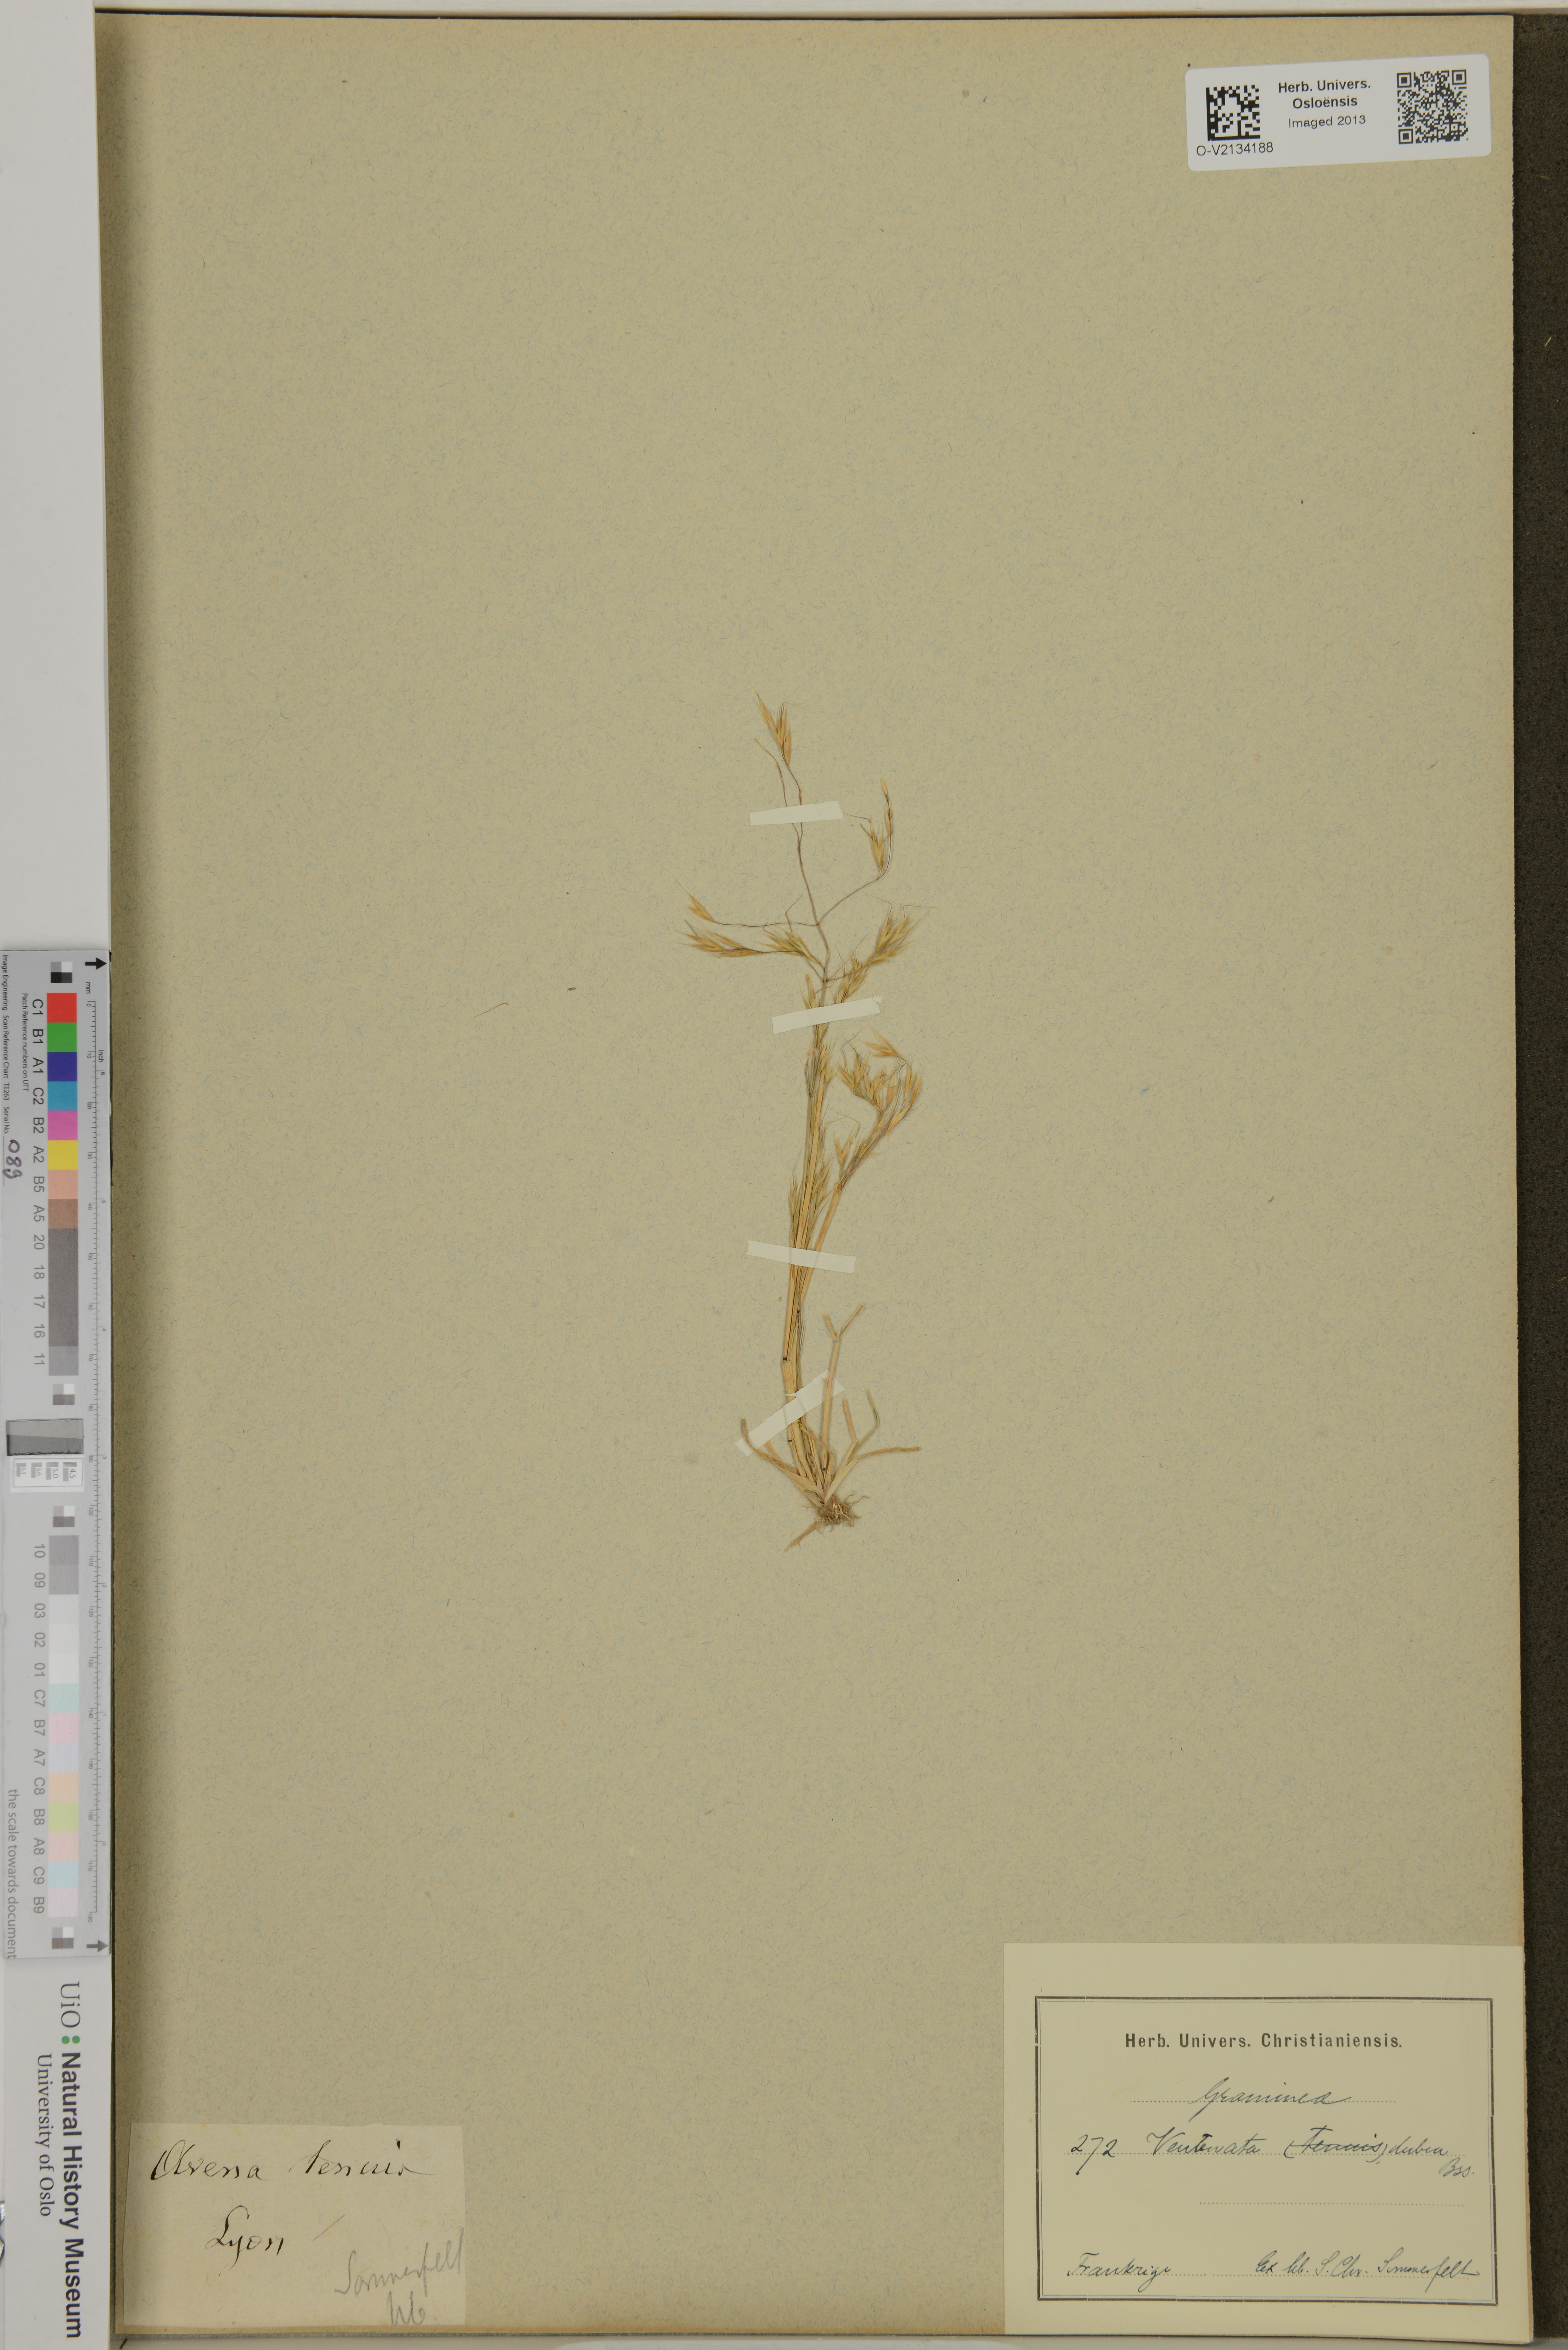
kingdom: Plantae
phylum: Tracheophyta
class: Liliopsida
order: Poales
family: Poaceae
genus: Ventenata
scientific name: Ventenata dubia
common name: North africa grass
